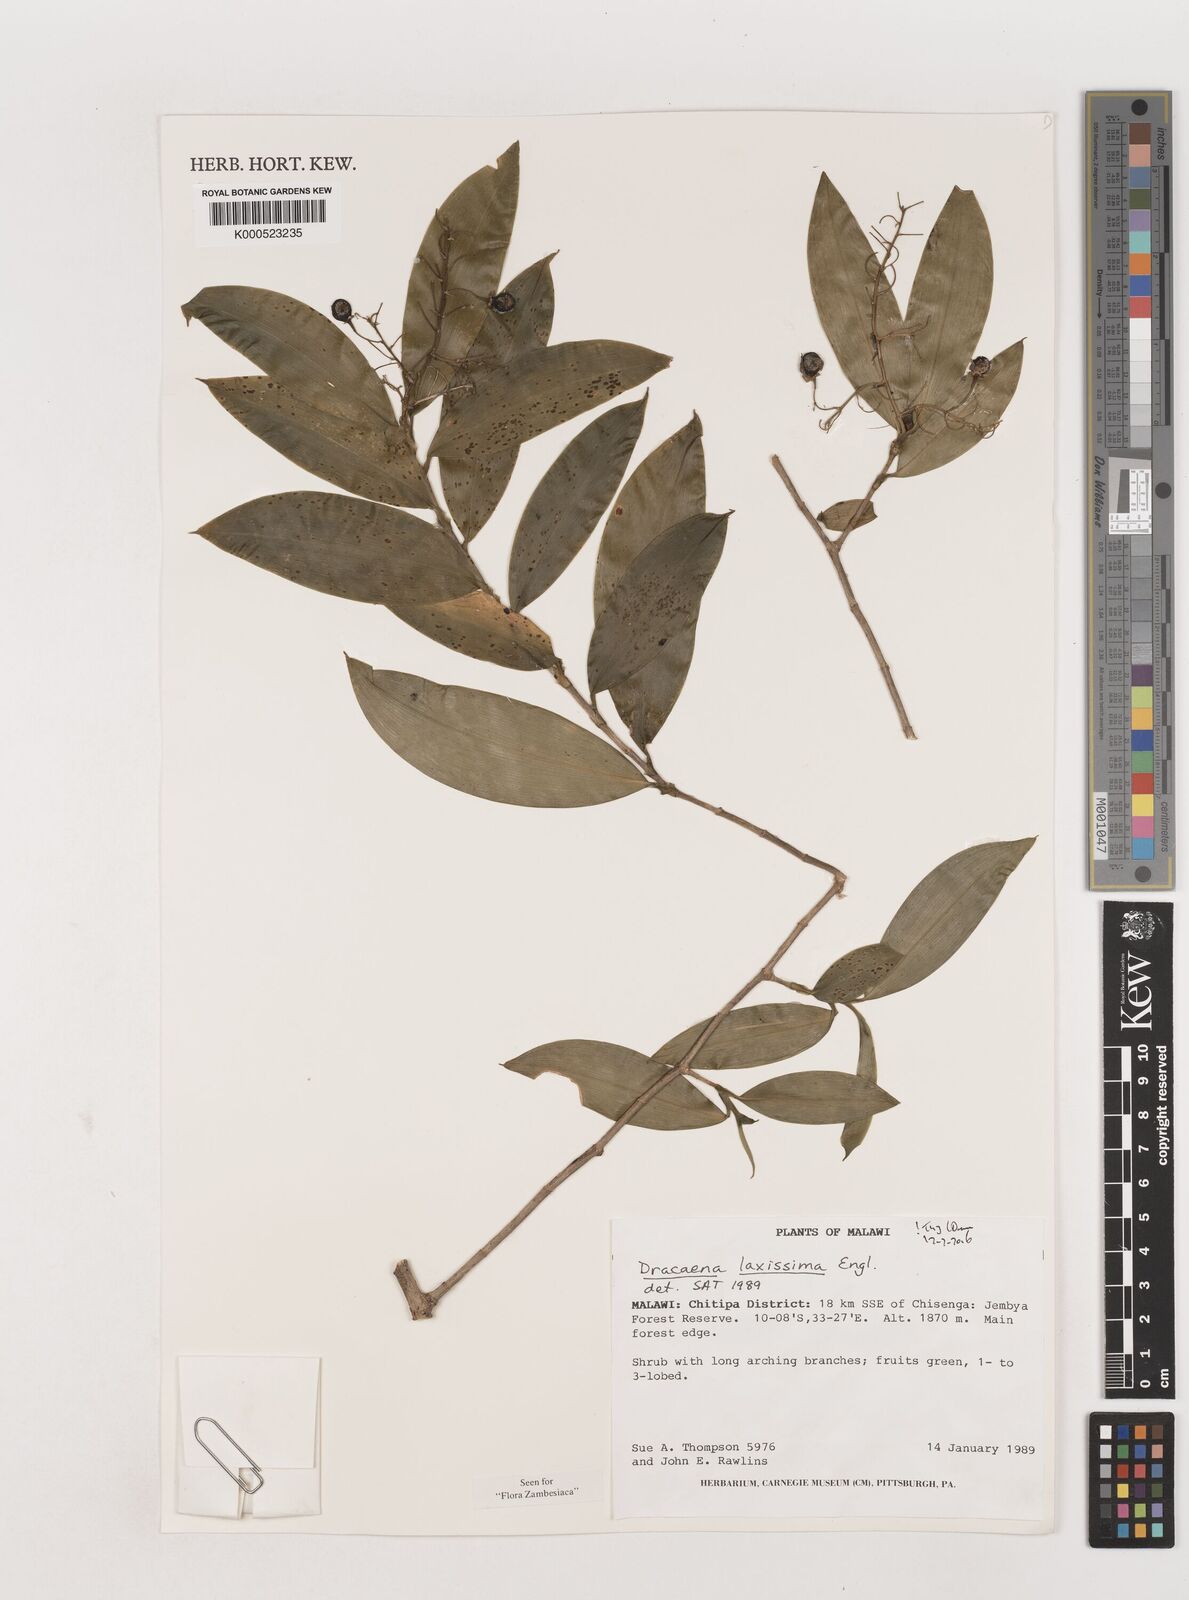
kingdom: Plantae
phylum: Tracheophyta
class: Liliopsida
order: Asparagales
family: Asparagaceae
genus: Dracaena
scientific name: Dracaena laxissima
